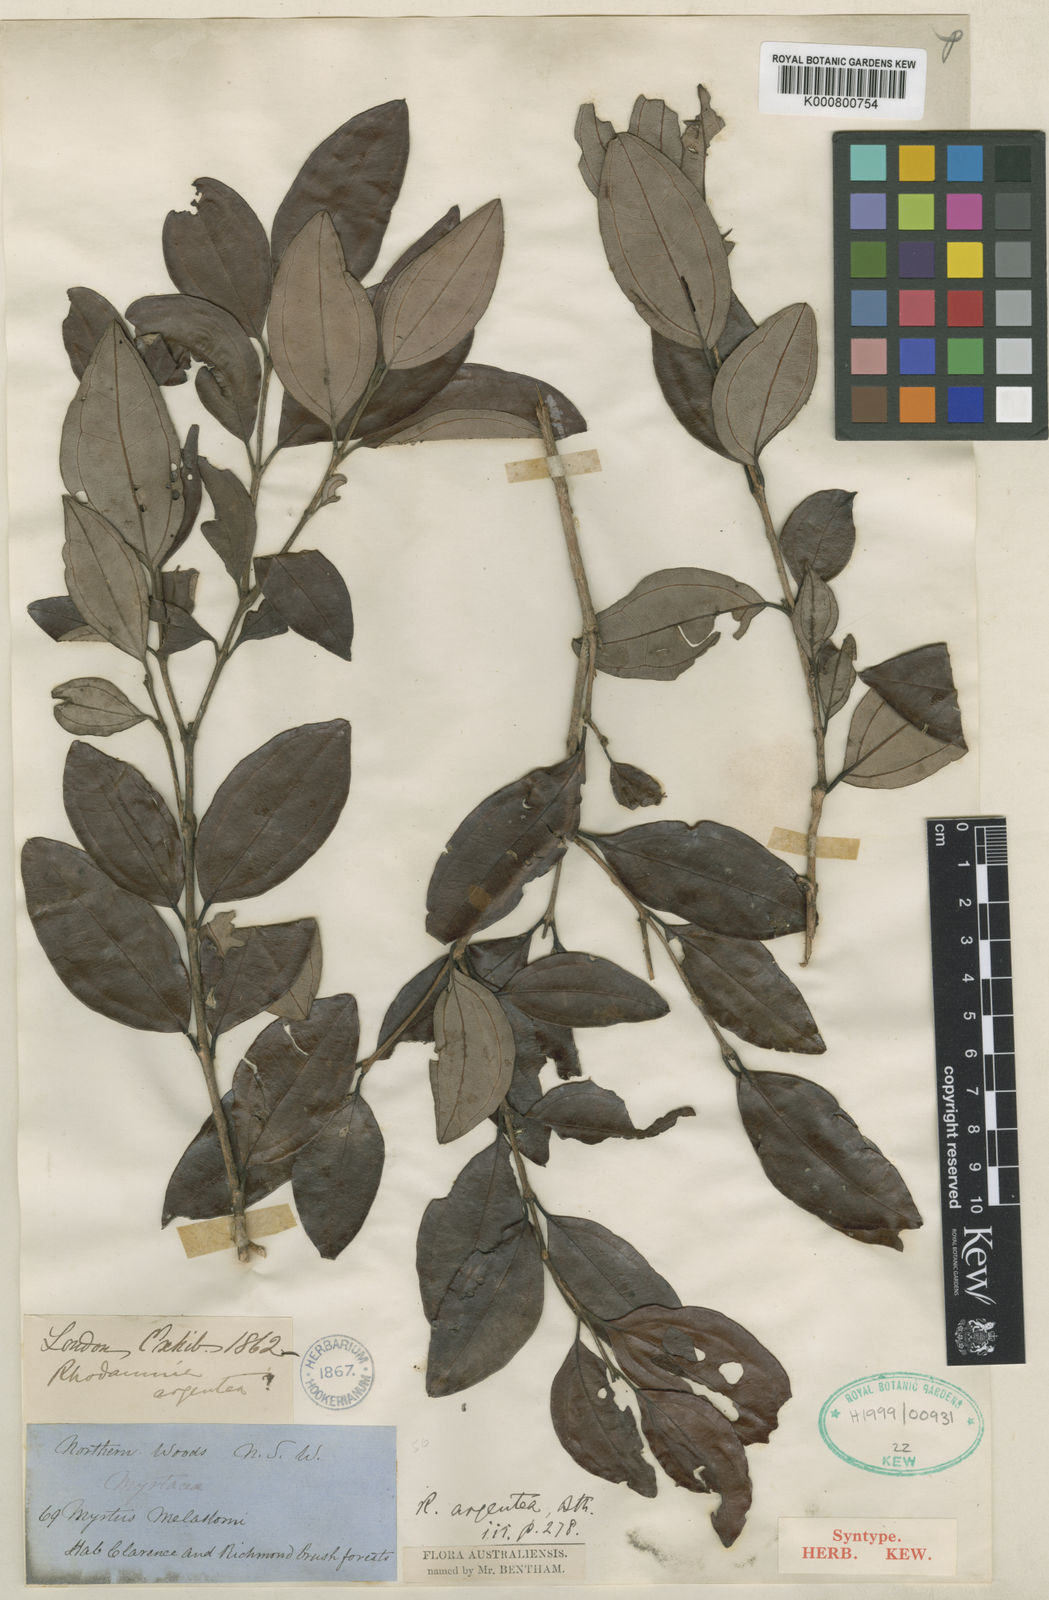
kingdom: Plantae
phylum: Tracheophyta
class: Magnoliopsida
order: Myrtales
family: Myrtaceae
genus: Rhodamnia
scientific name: Rhodamnia argentea
